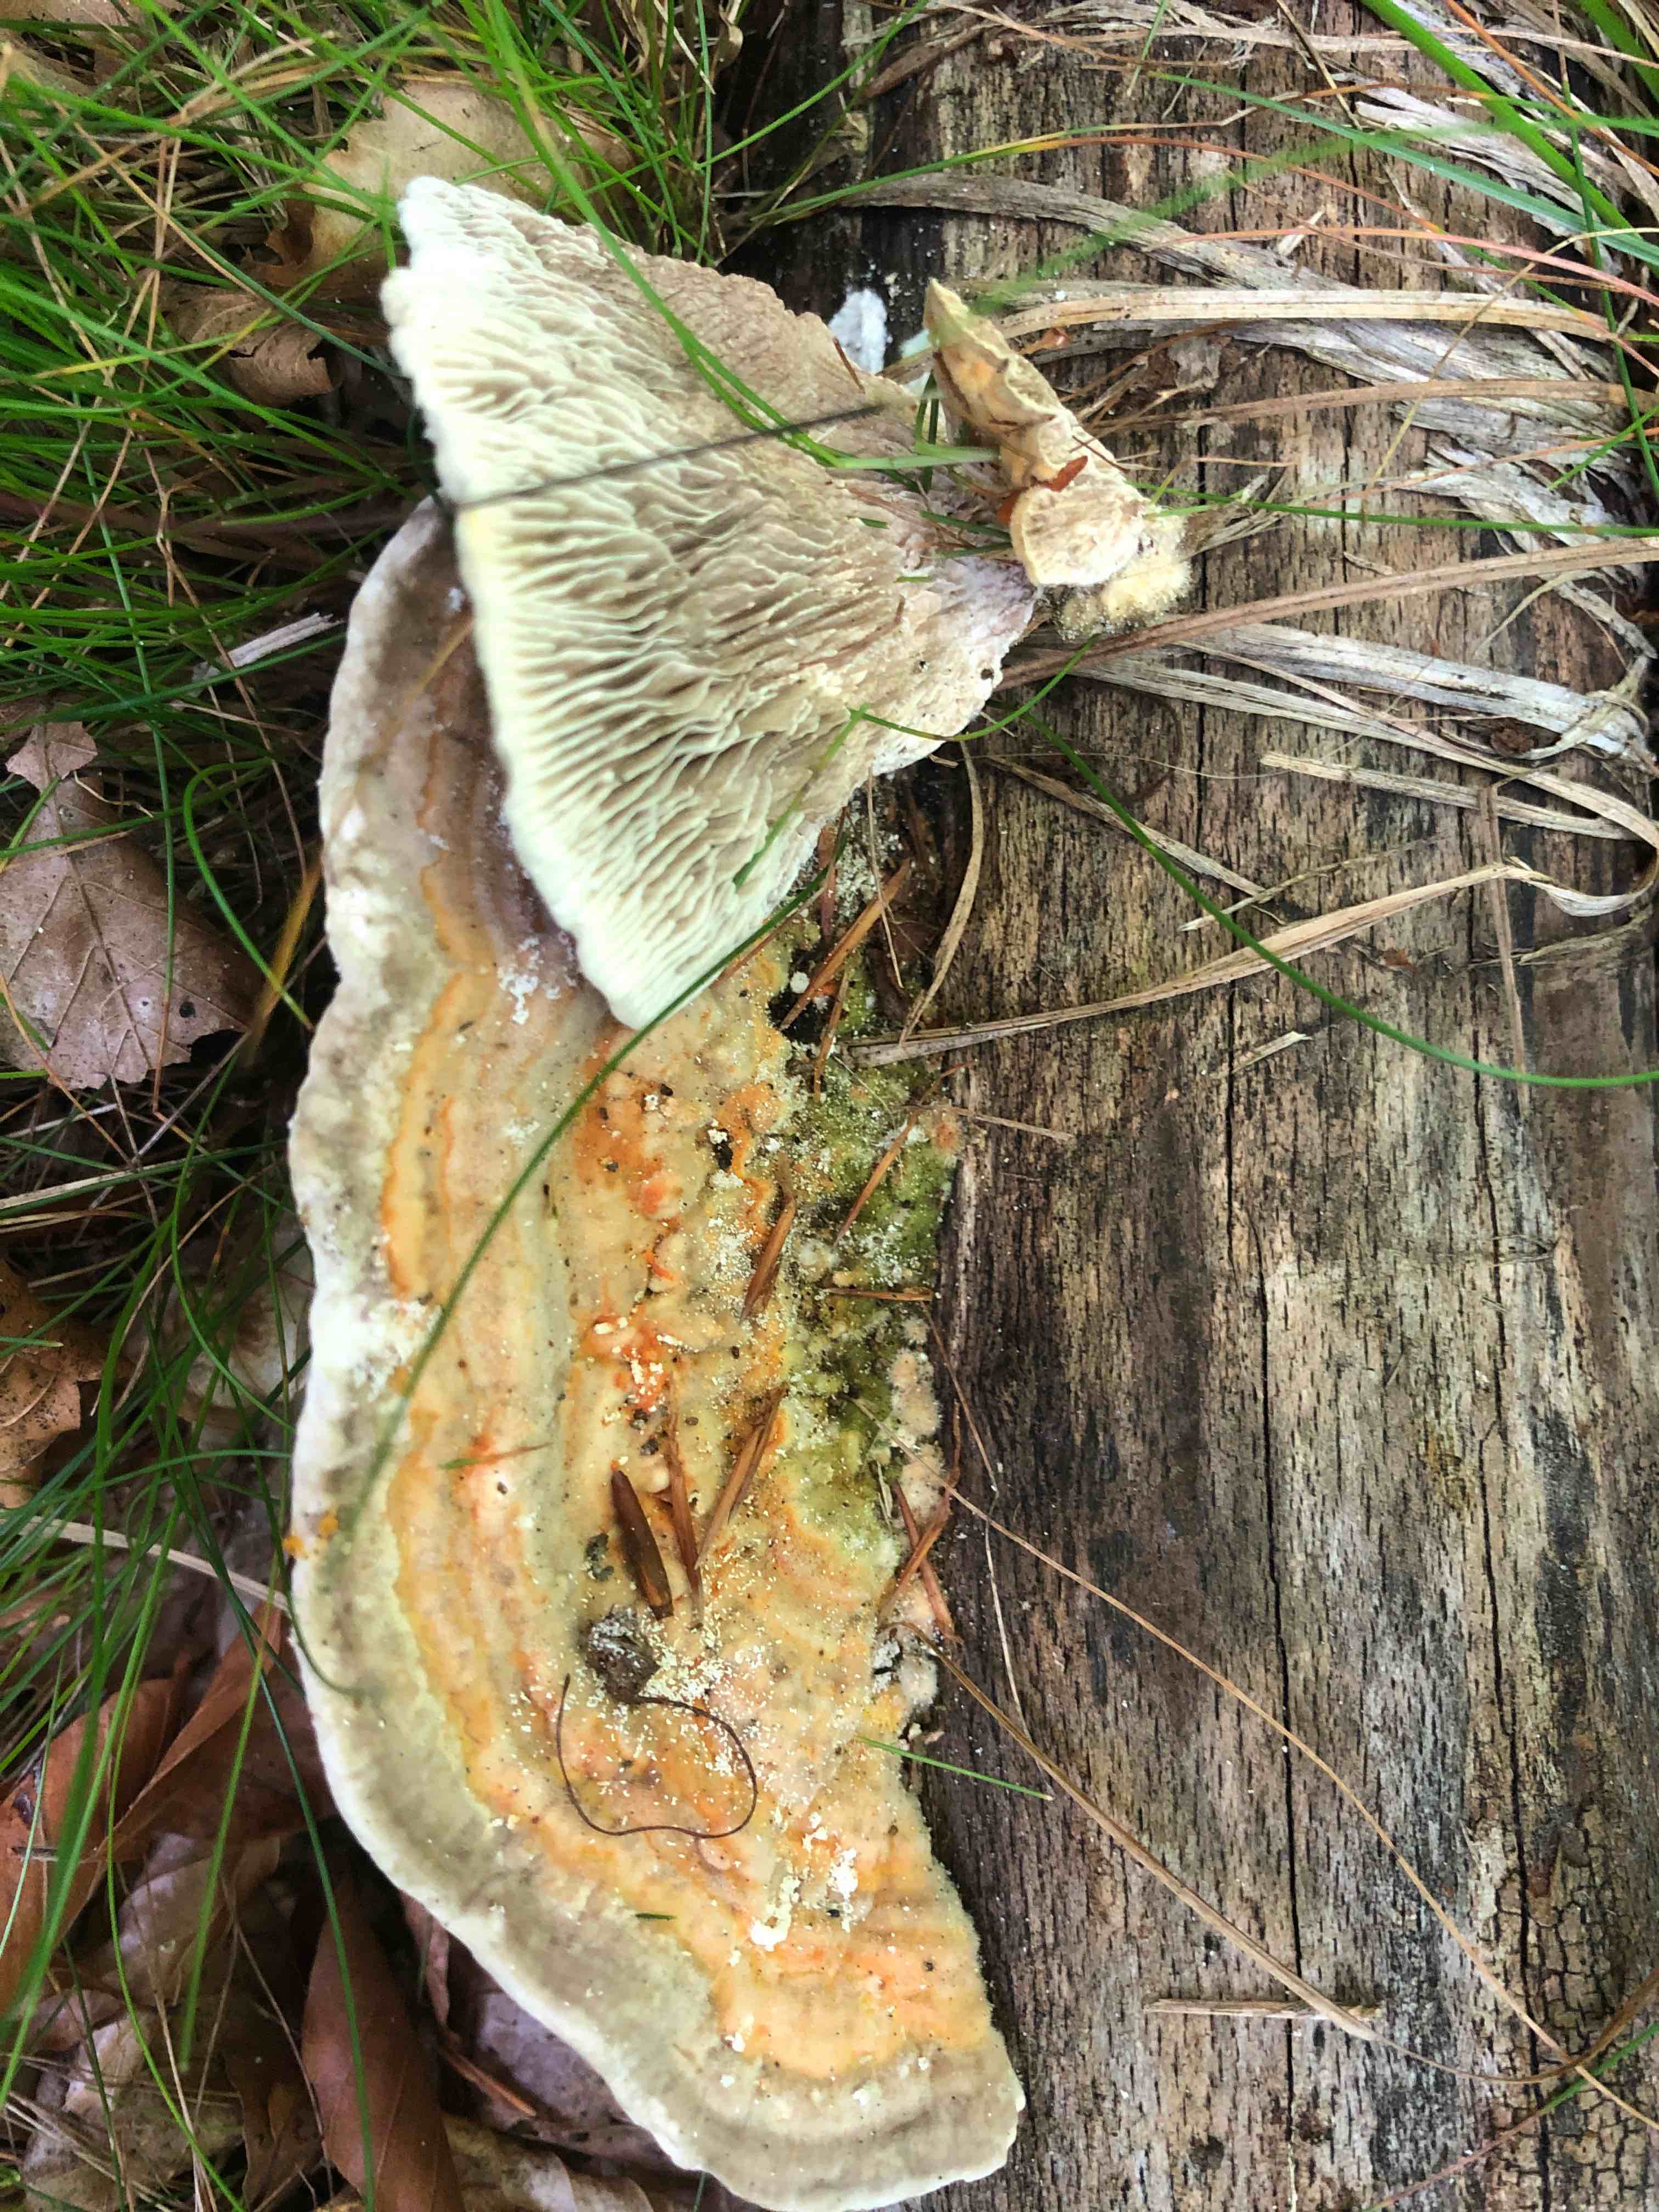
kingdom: Fungi
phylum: Basidiomycota
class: Agaricomycetes
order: Polyporales
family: Polyporaceae
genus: Lenzites
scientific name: Lenzites betulinus
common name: birke-læderporesvamp
